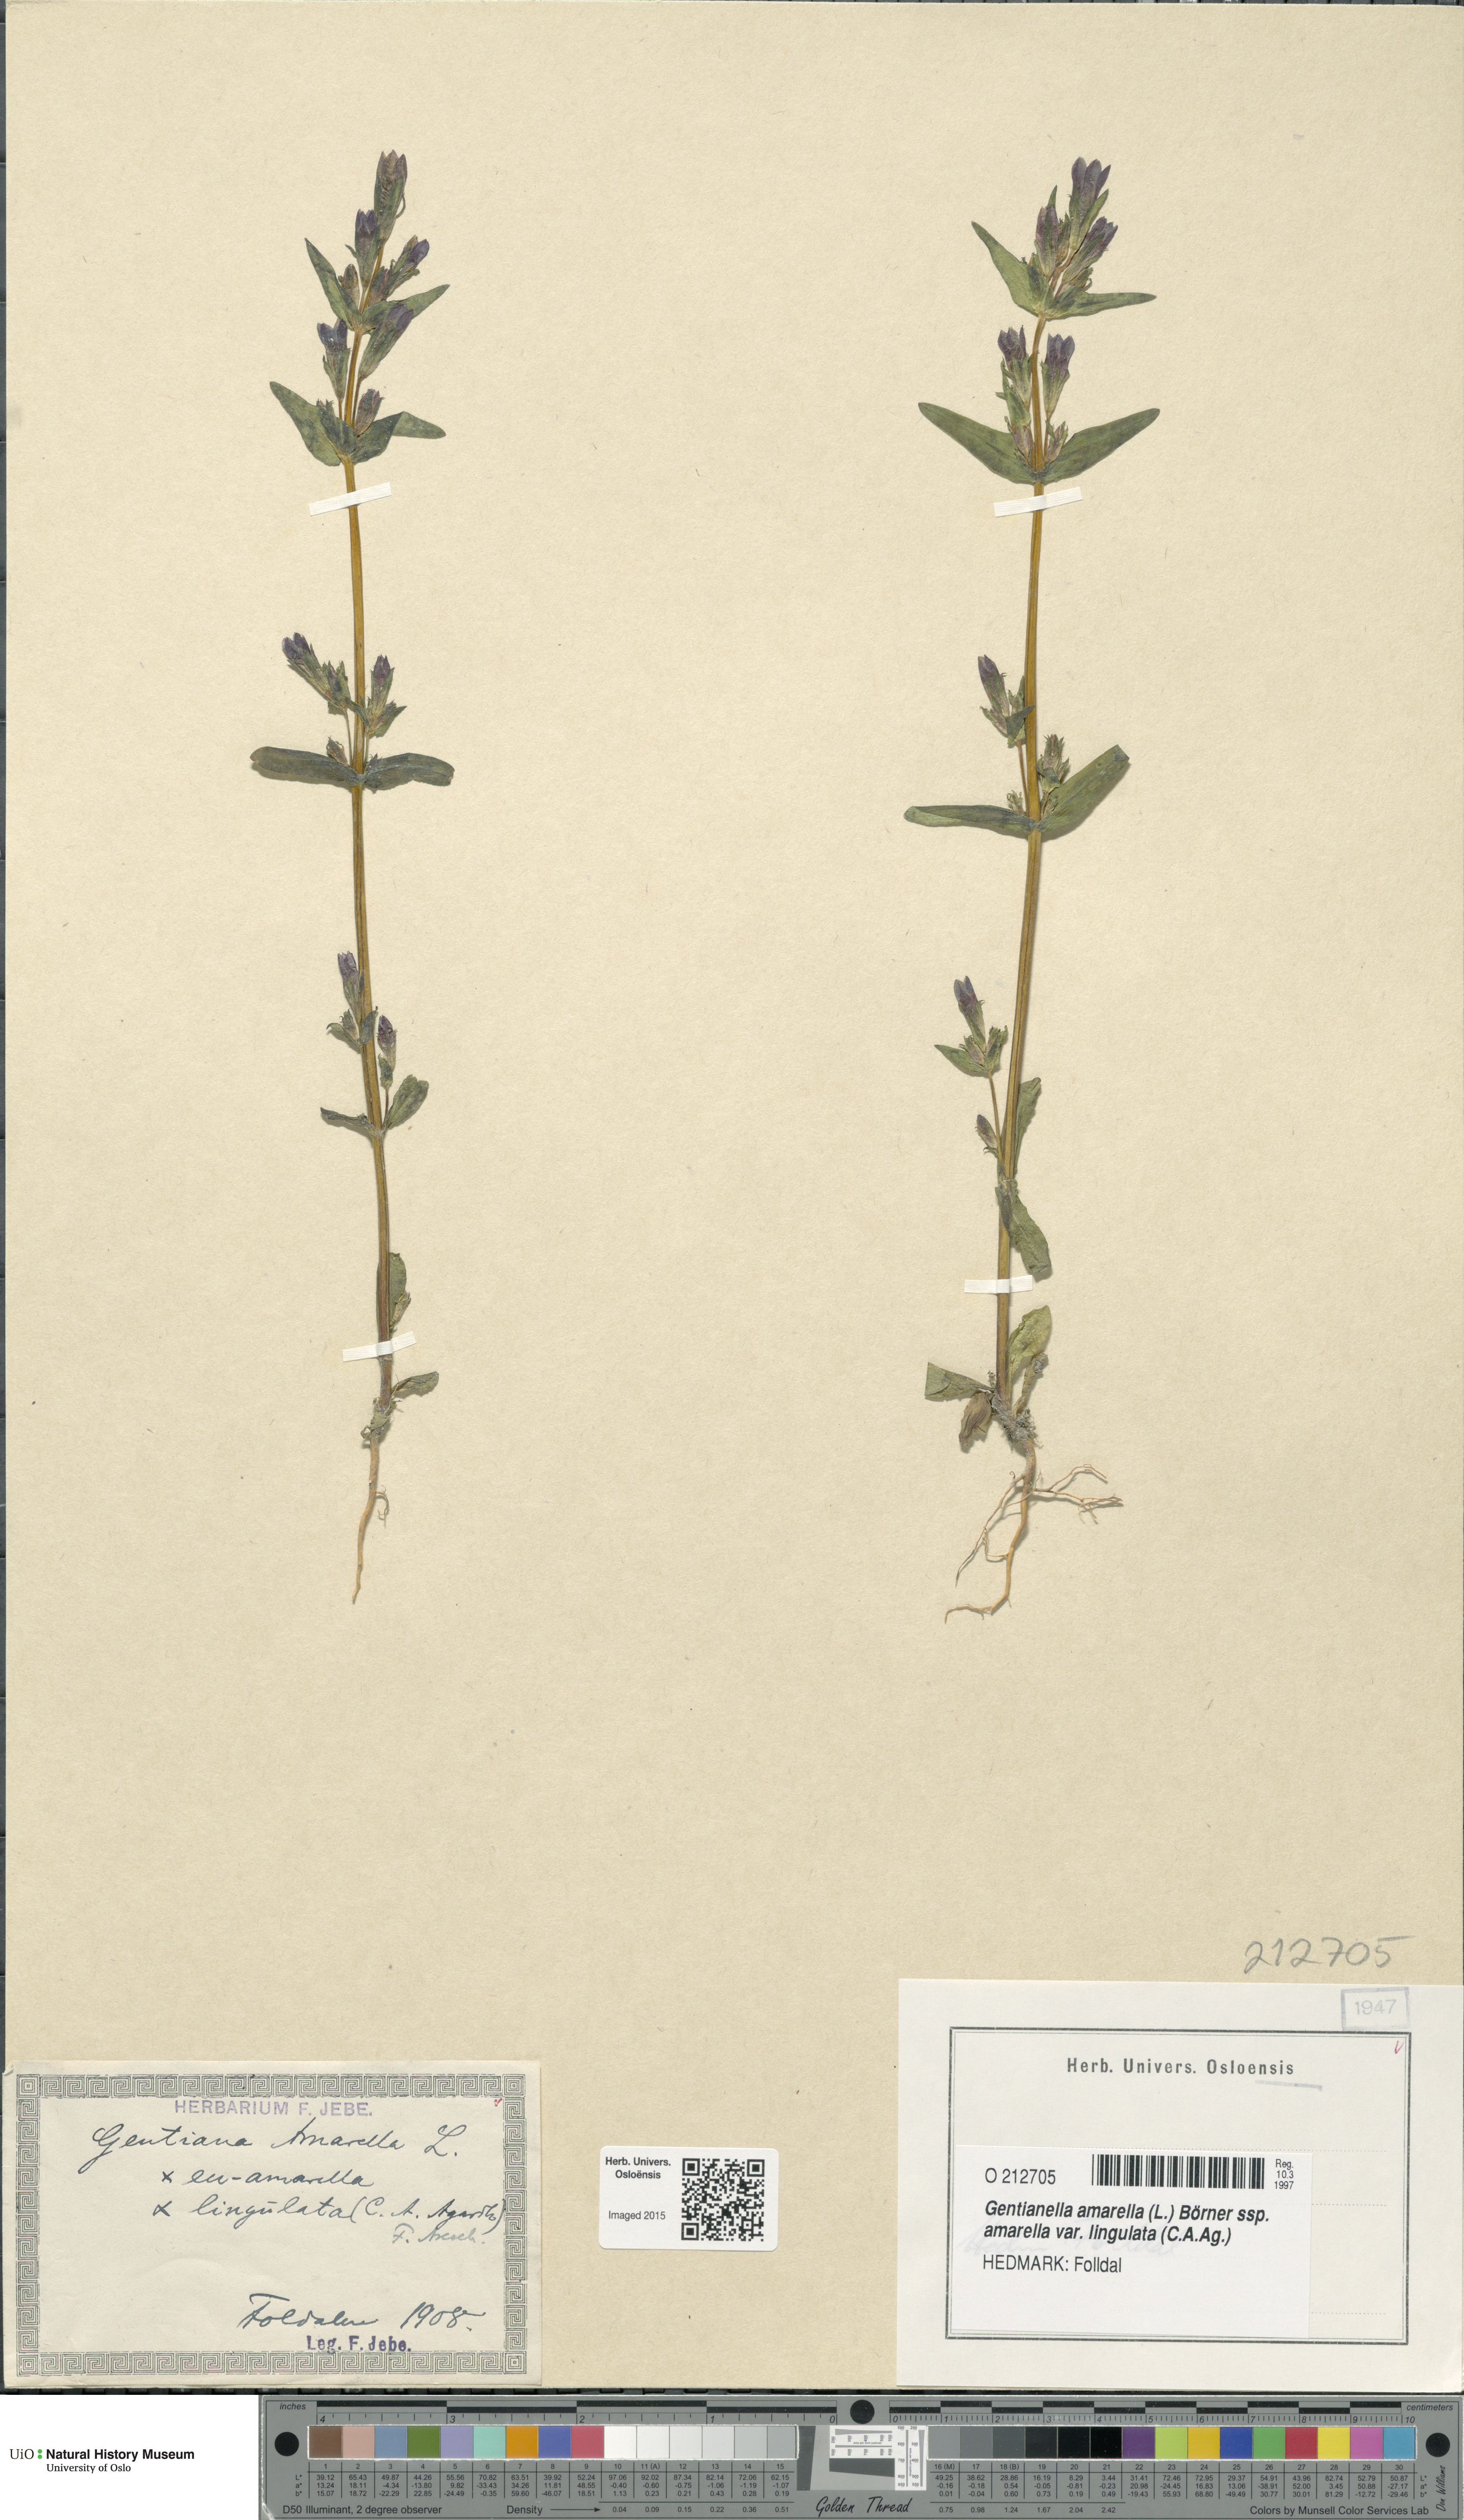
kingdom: Plantae
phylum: Tracheophyta
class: Magnoliopsida
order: Gentianales
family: Gentianaceae
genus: Gentianella
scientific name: Gentianella amarella
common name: Autumn gentian
